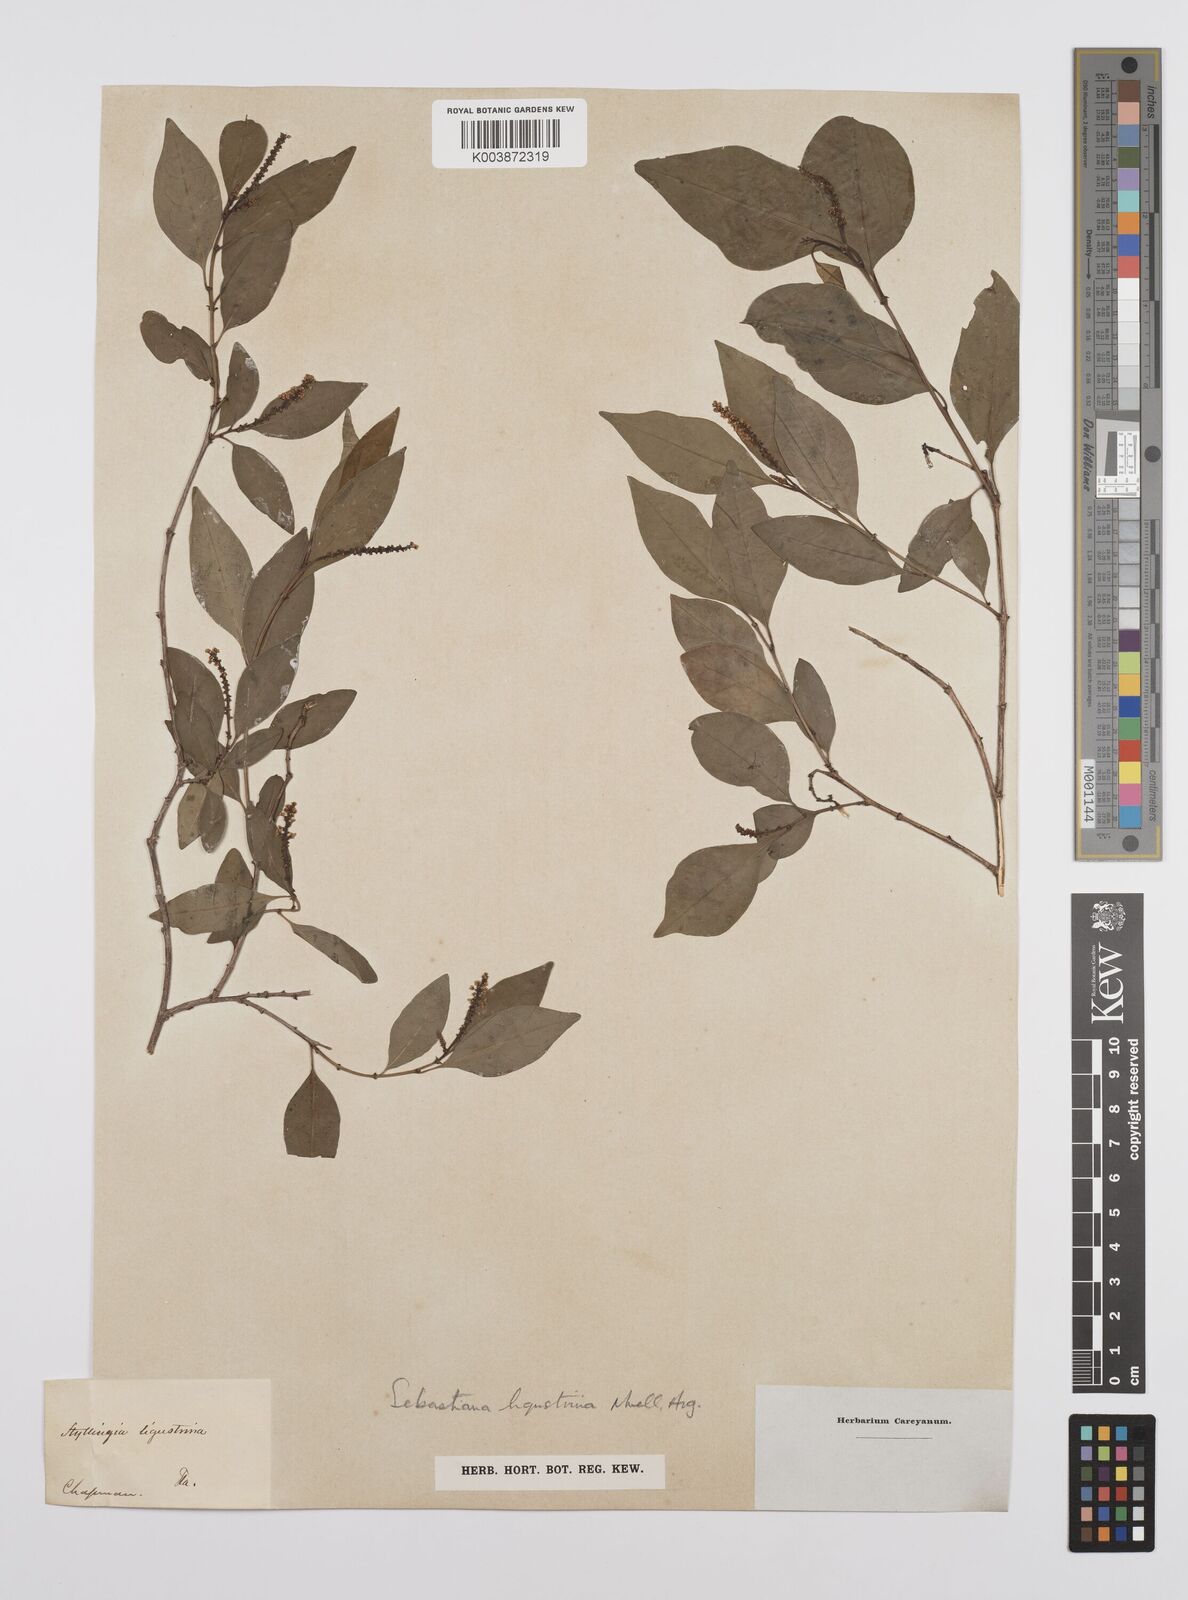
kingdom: Plantae
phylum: Tracheophyta
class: Magnoliopsida
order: Malpighiales
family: Euphorbiaceae
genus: Ditrysinia
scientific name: Ditrysinia fruticosa
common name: Gulf sebastian-bush
